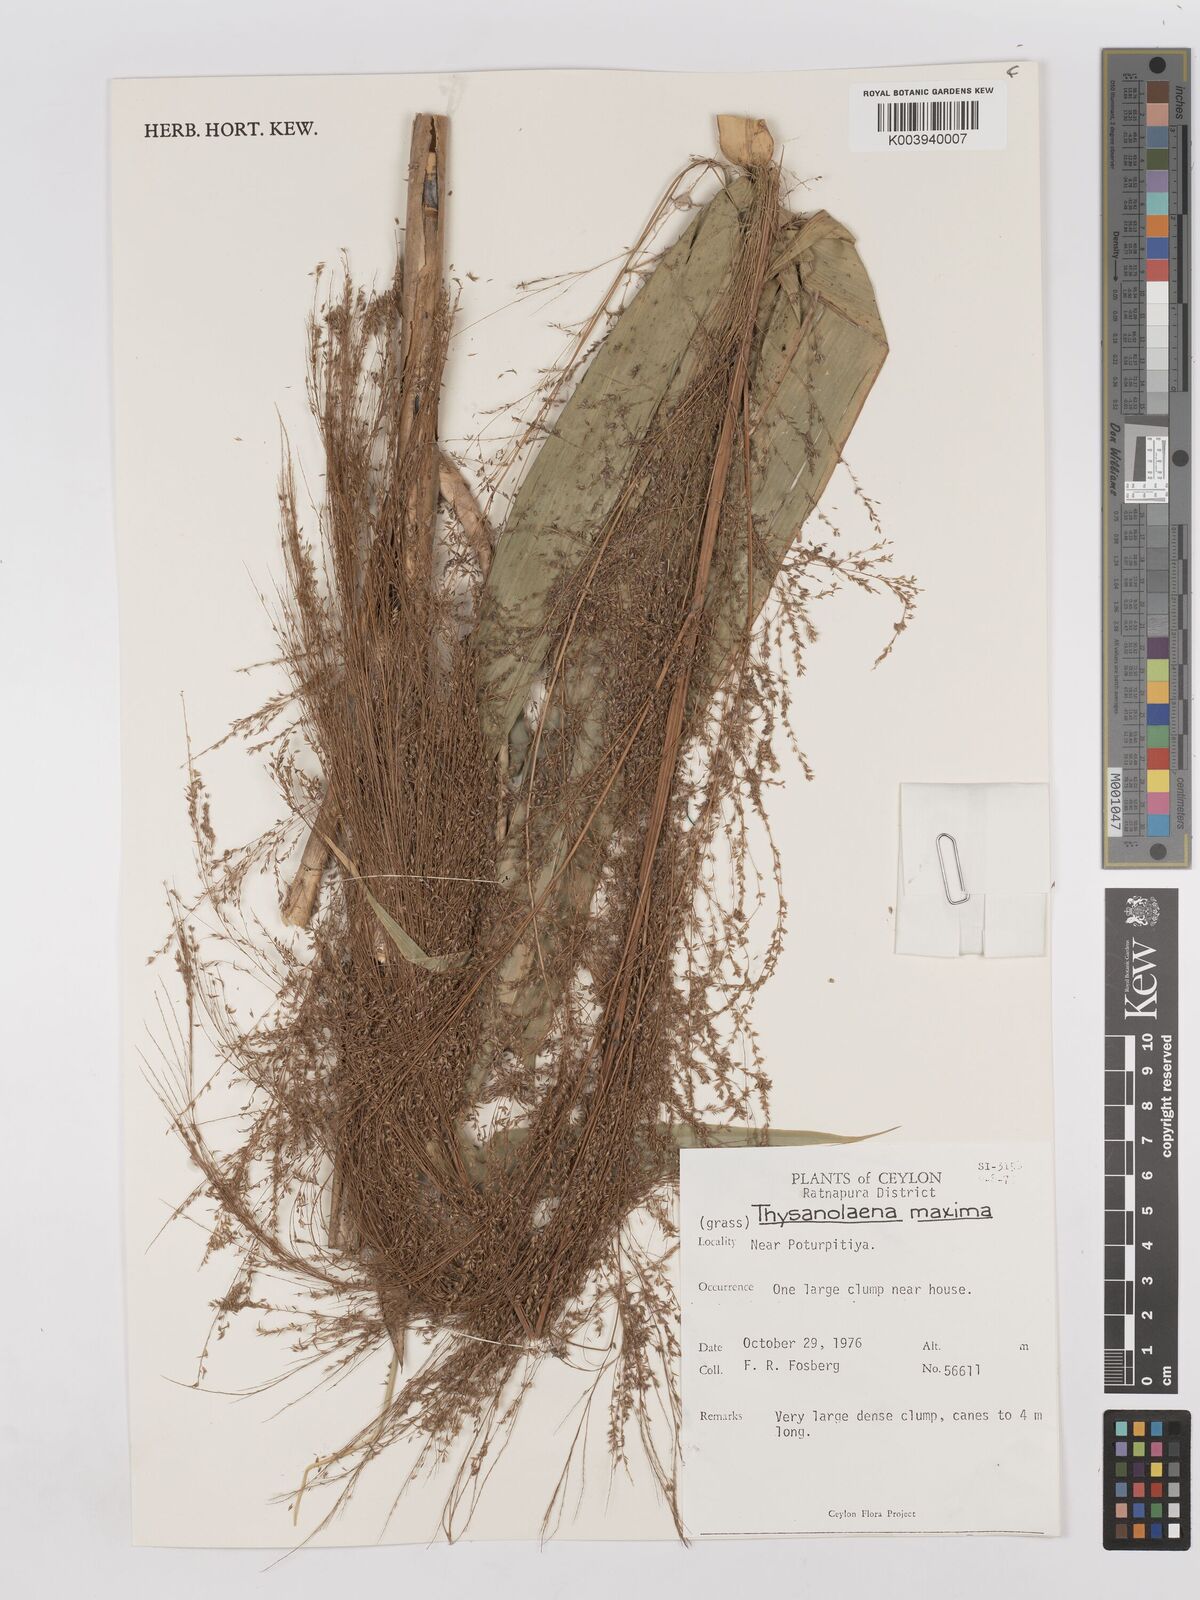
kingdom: Plantae
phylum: Tracheophyta
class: Liliopsida
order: Poales
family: Poaceae
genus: Thysanolaena
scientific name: Thysanolaena latifolia
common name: Tiger grass
